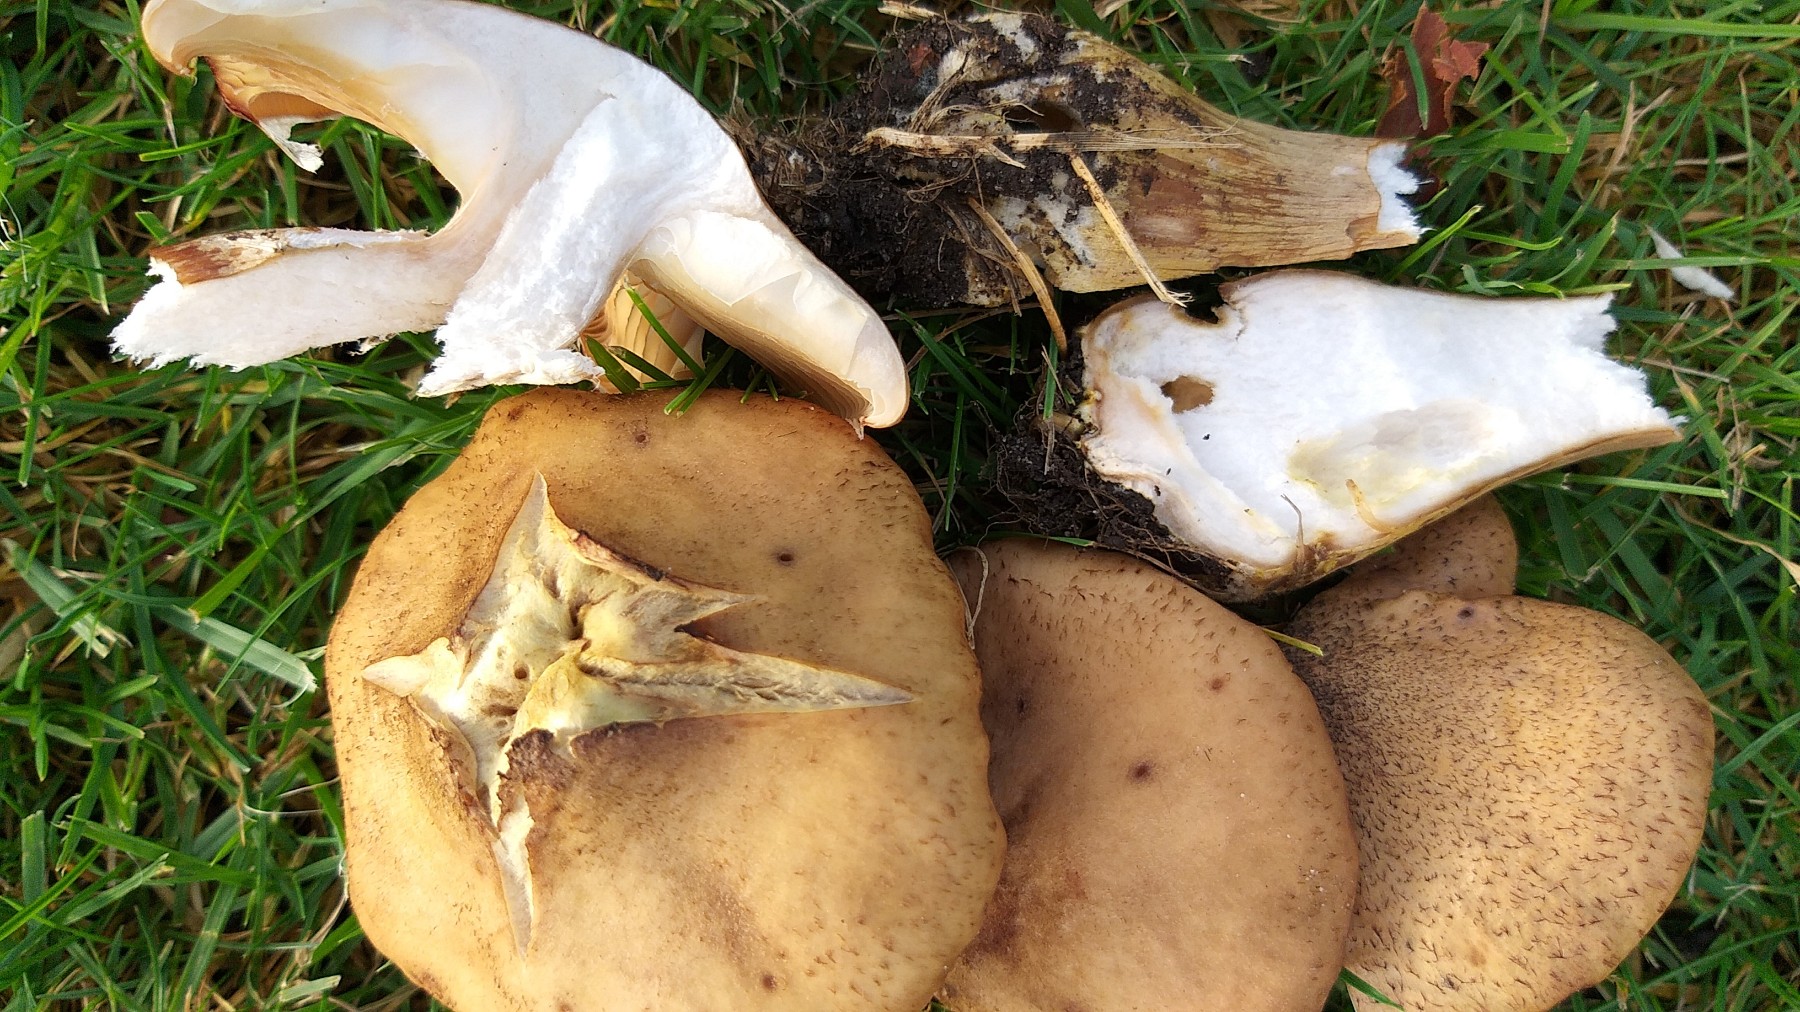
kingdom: Fungi
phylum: Basidiomycota
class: Agaricomycetes
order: Agaricales
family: Physalacriaceae
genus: Armillaria
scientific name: Armillaria lutea
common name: køllestokket honningsvamp
